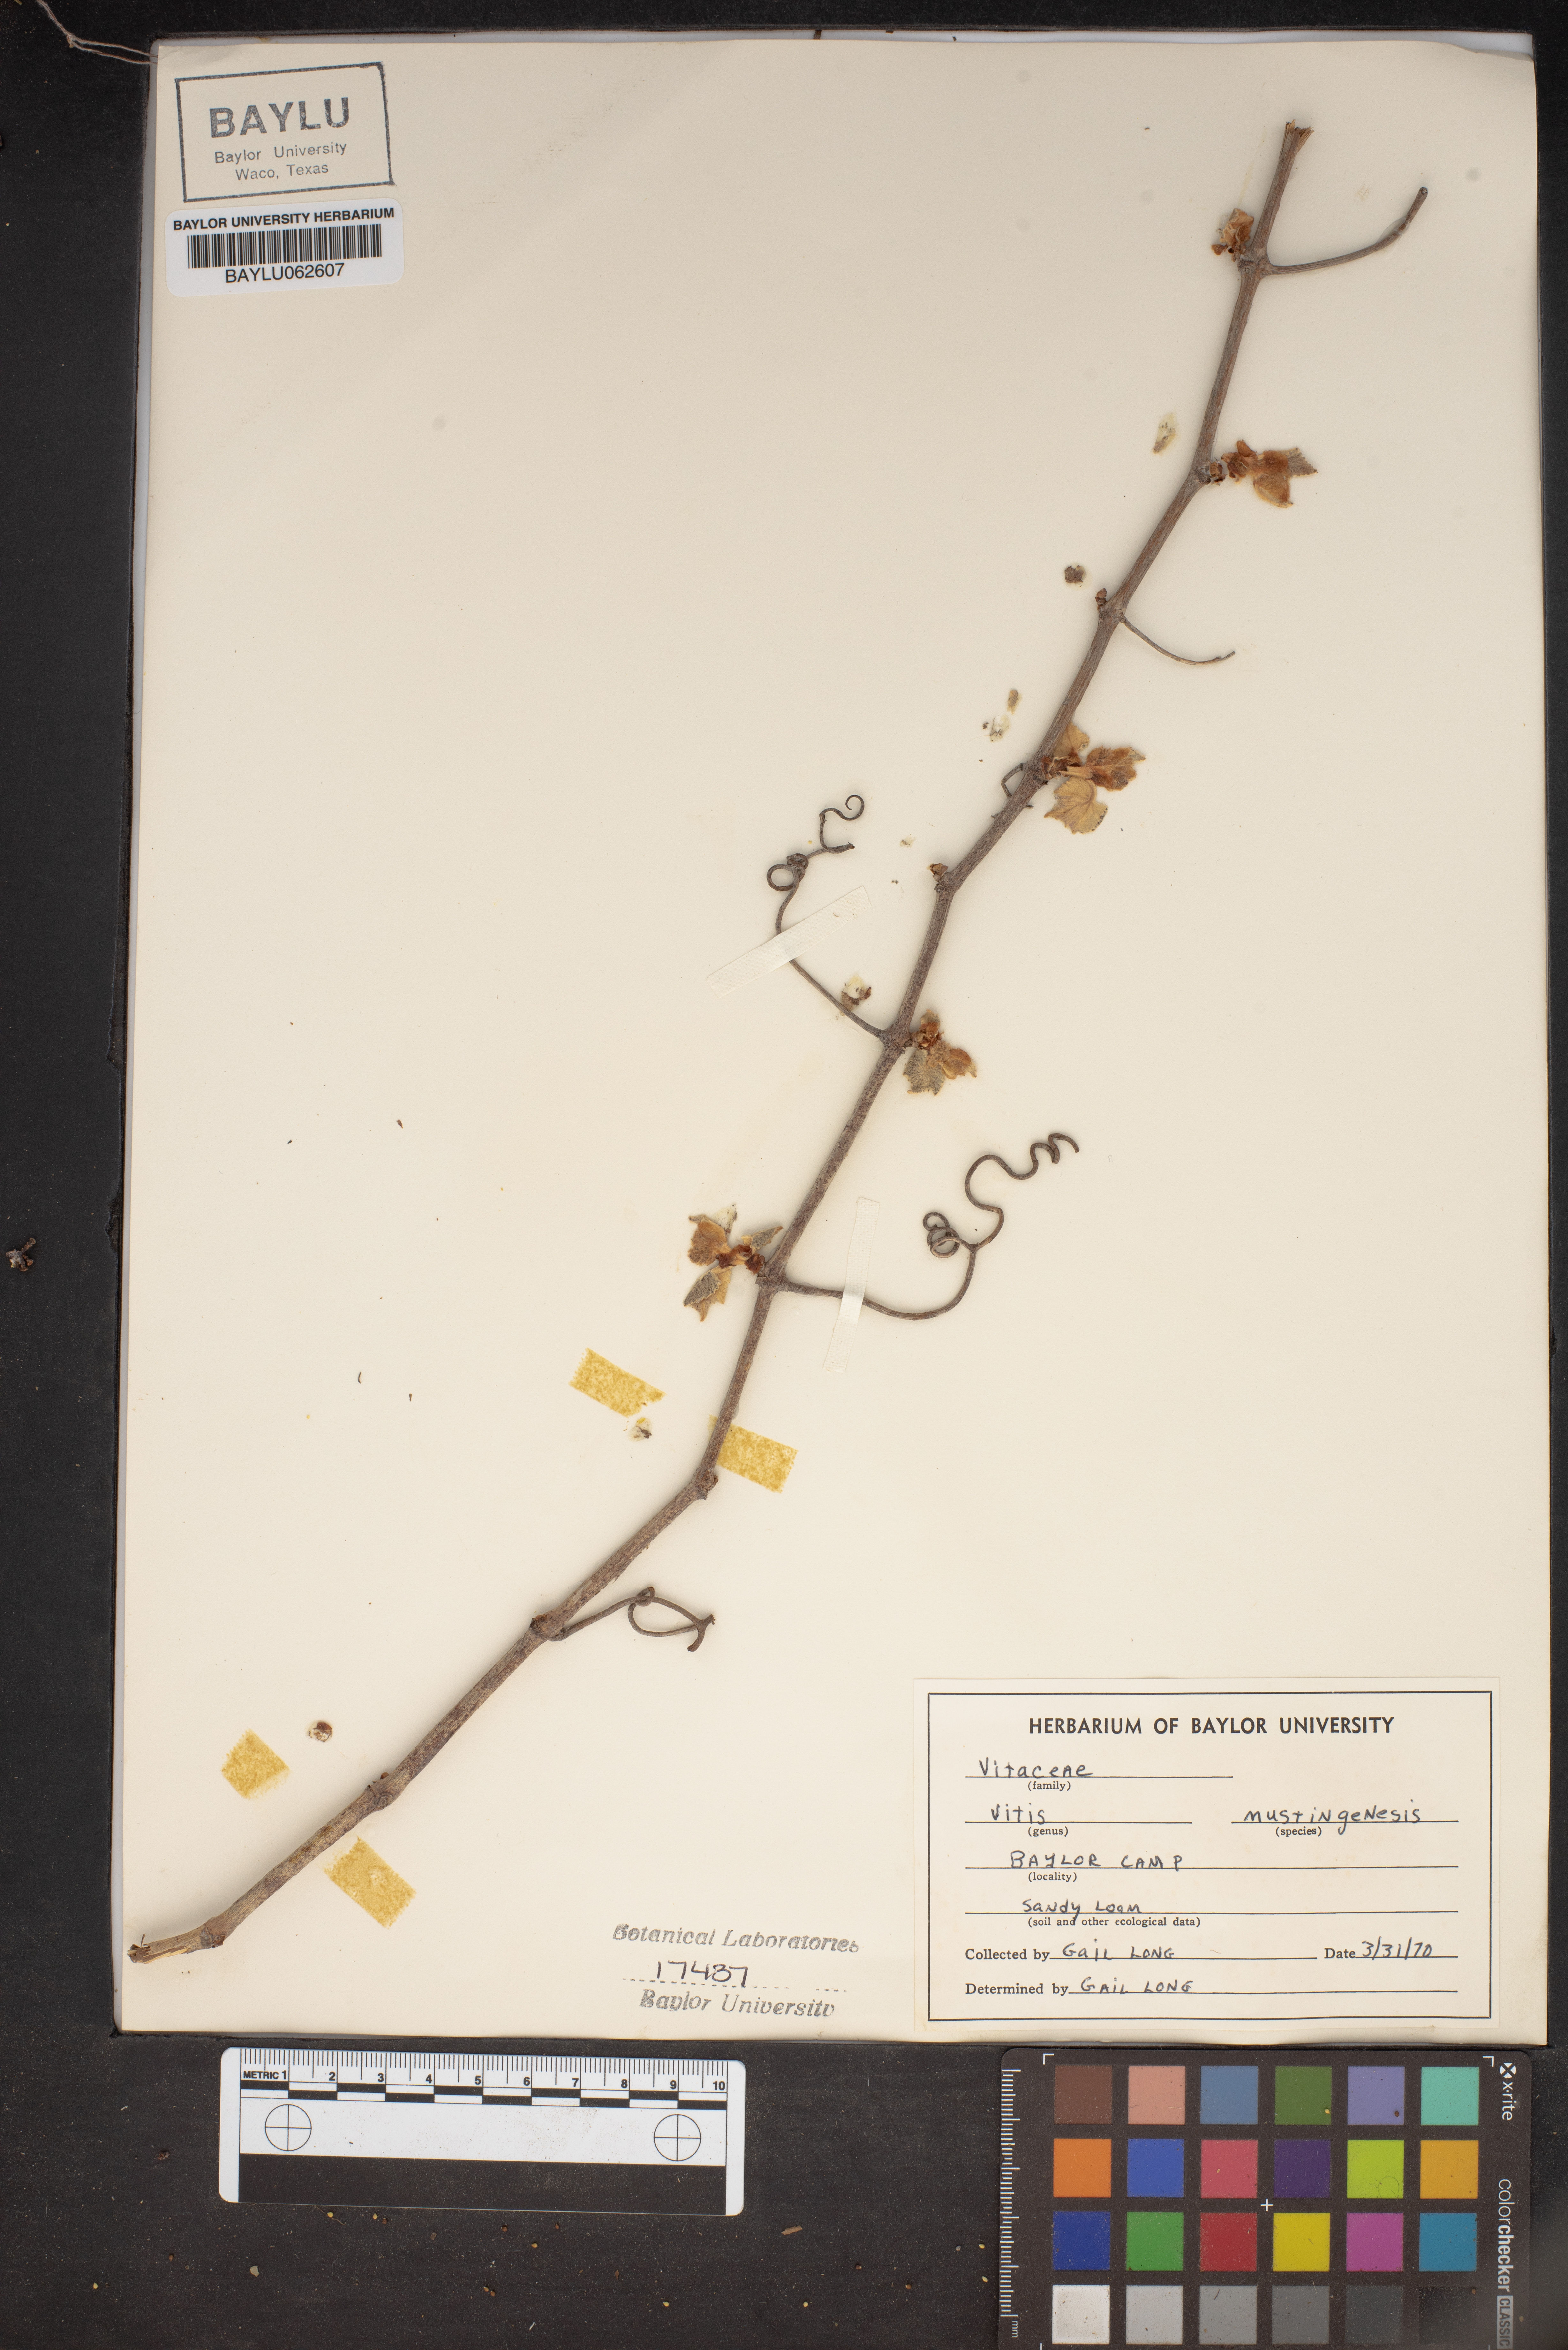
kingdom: Plantae
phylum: Tracheophyta
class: Magnoliopsida
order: Vitales
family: Vitaceae
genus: Vitis
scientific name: Vitis mustangensis
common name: Mustang grape
